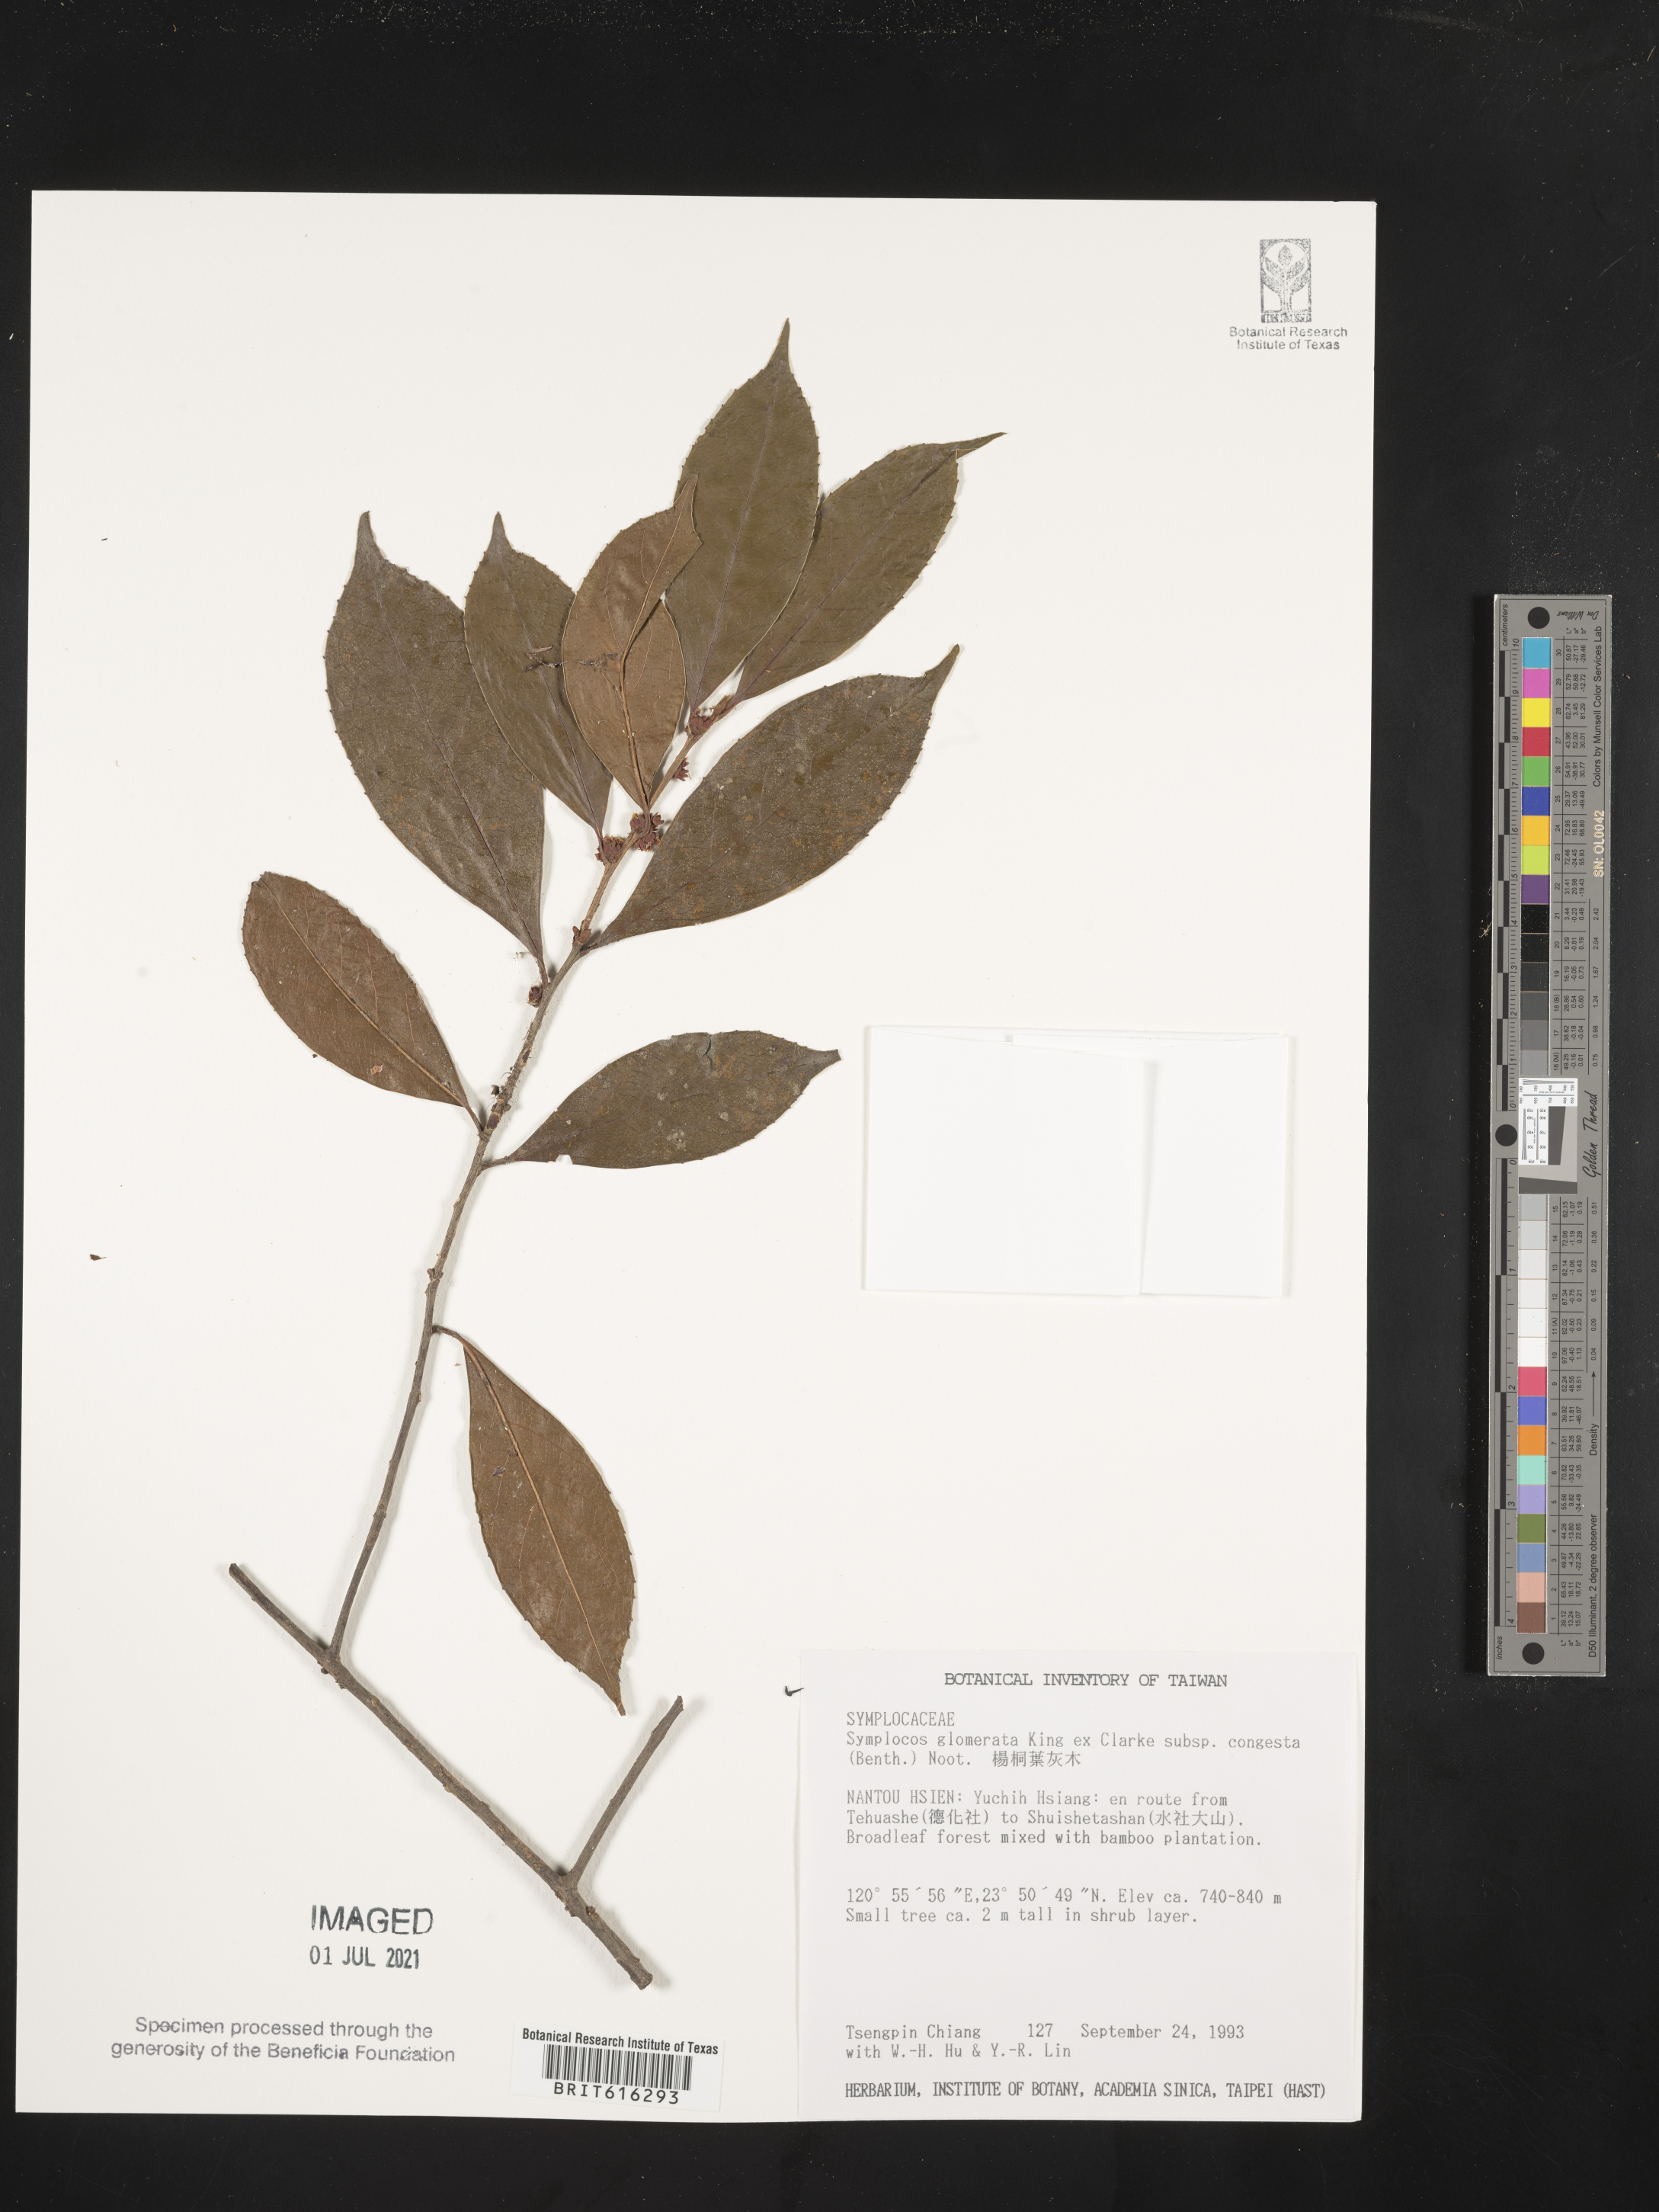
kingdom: Plantae
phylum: Tracheophyta
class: Magnoliopsida
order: Ericales
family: Symplocaceae
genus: Symplocos
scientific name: Symplocos congesta
